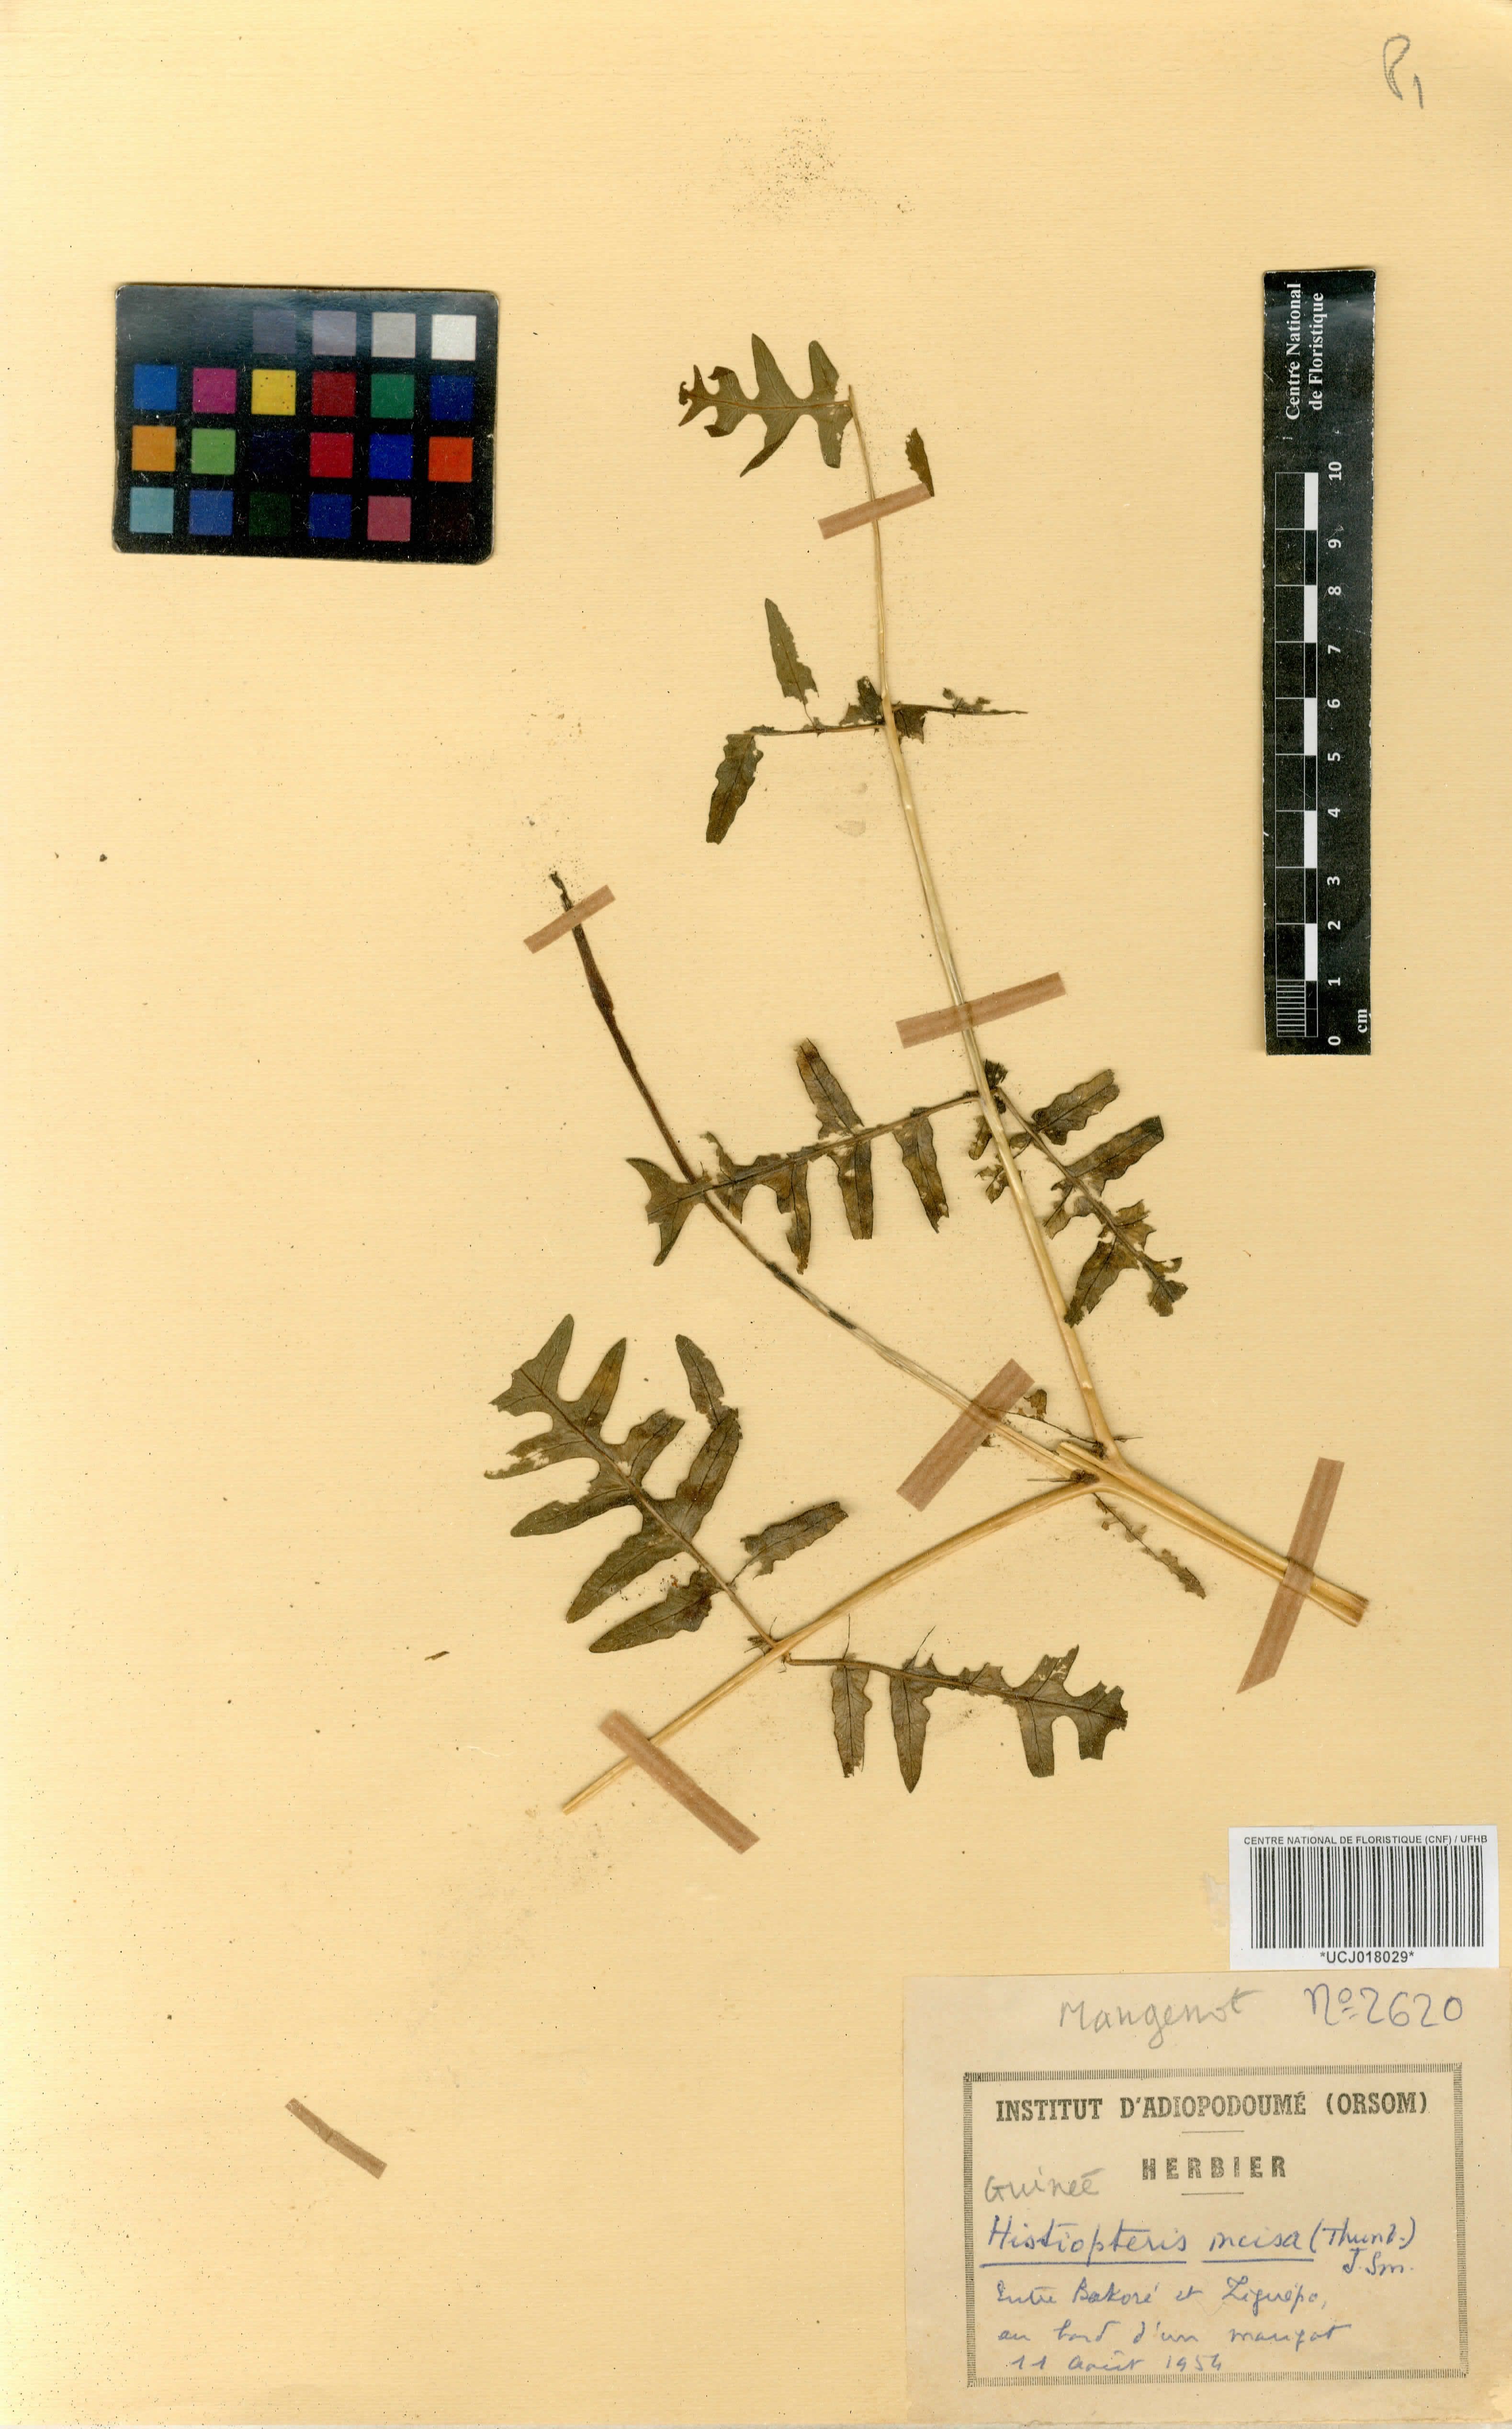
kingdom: Plantae
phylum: Tracheophyta
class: Polypodiopsida
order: Polypodiales
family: Dennstaedtiaceae
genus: Histiopteris
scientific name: Histiopteris incisa
